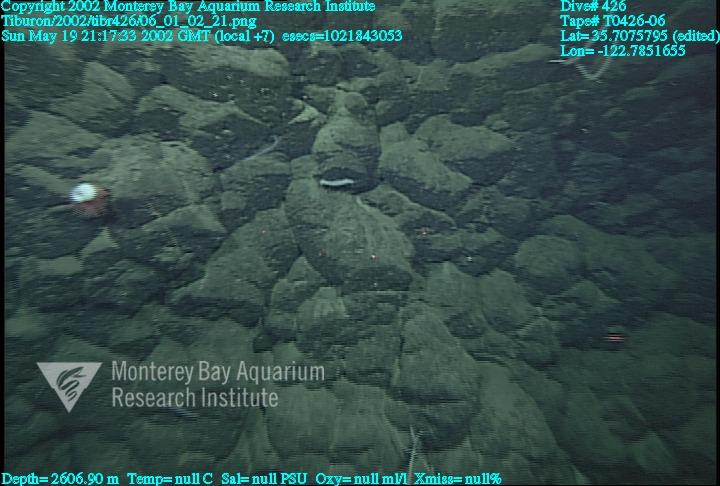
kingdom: Animalia
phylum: Porifera
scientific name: Porifera
